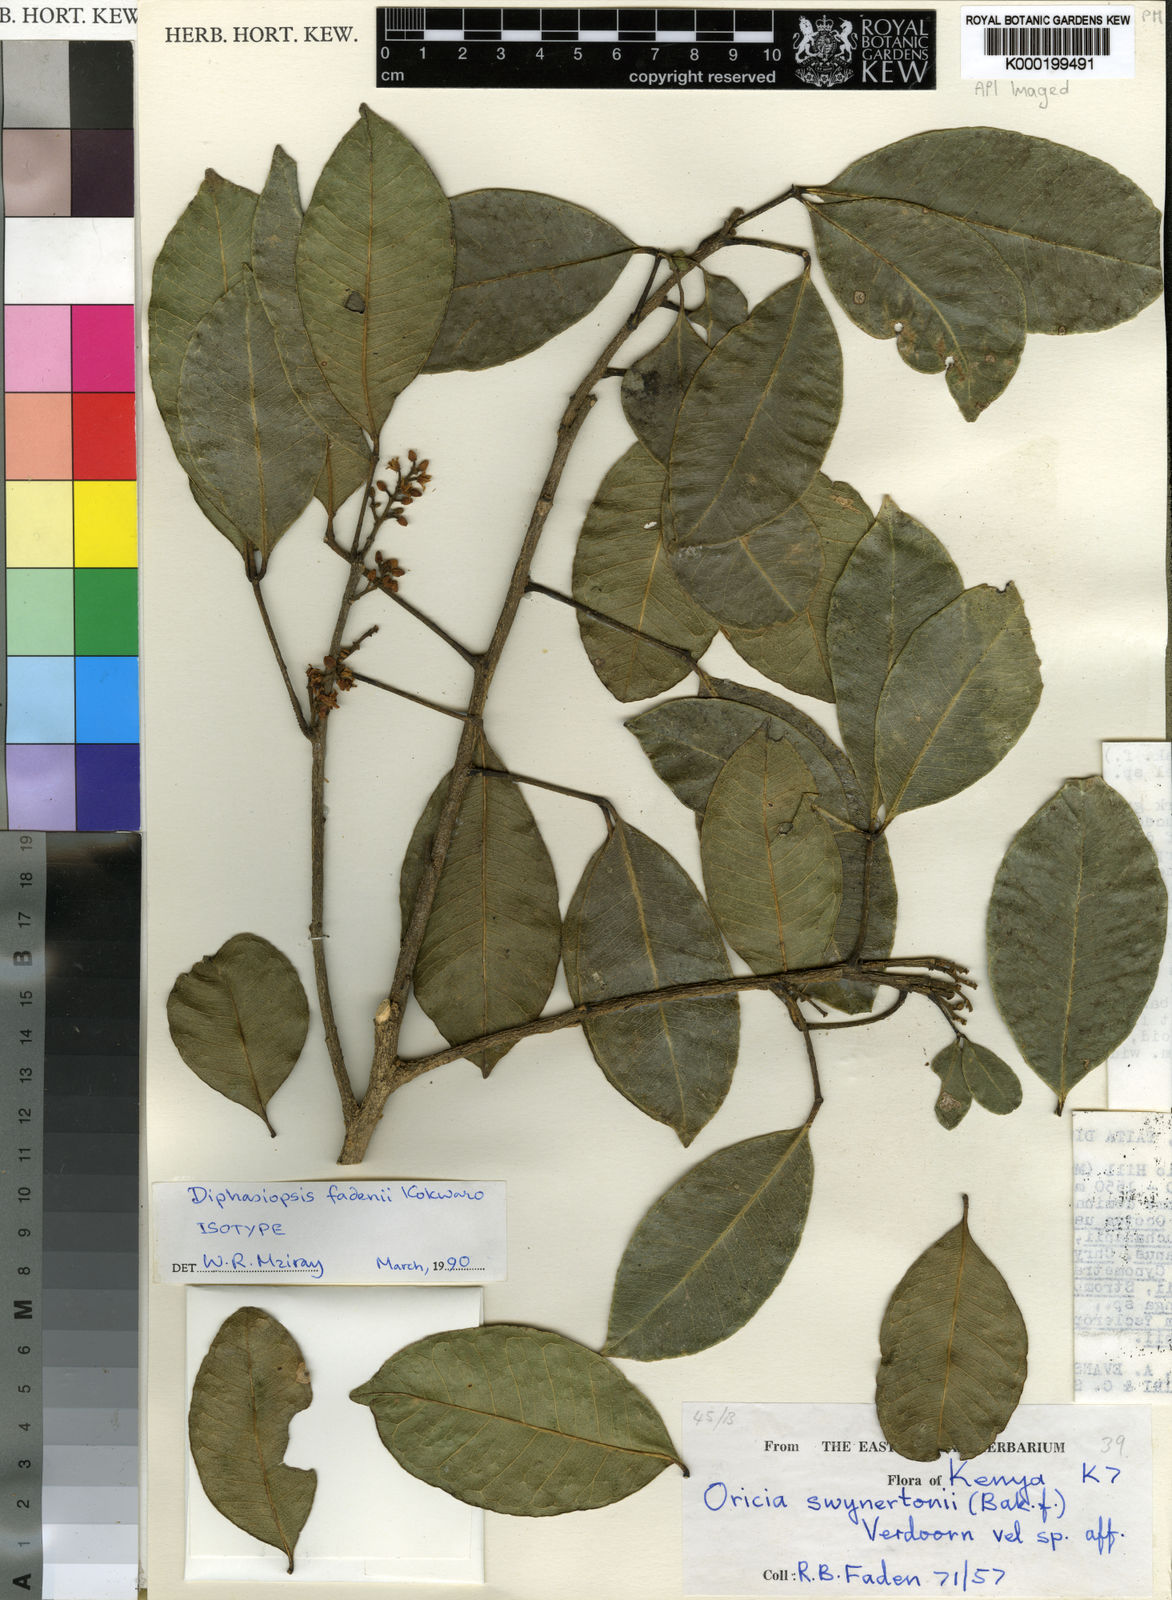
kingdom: Plantae
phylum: Tracheophyta
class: Magnoliopsida
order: Sapindales
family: Rutaceae
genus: Vepris
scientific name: Vepris fadenii
